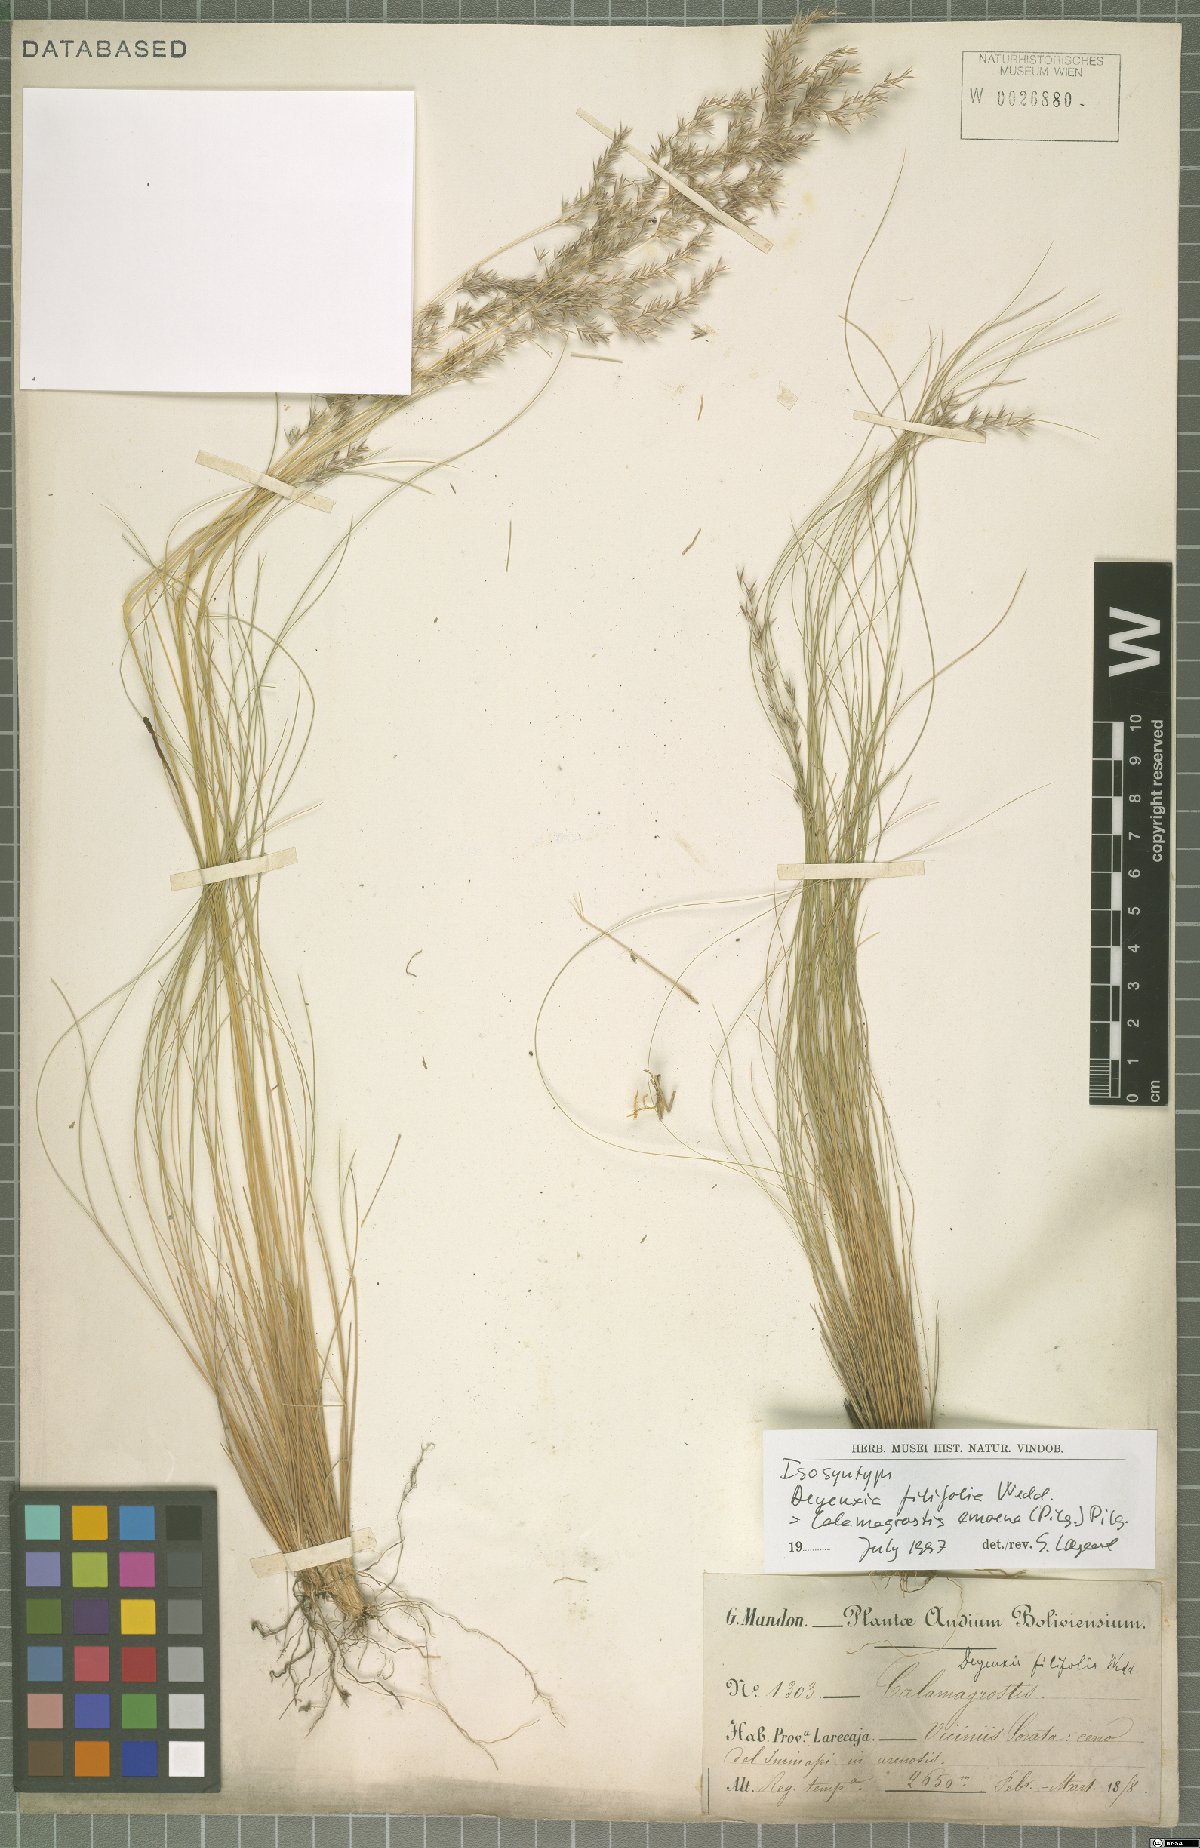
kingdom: Plantae
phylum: Tracheophyta
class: Liliopsida
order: Poales
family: Poaceae
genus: Cinnagrostis
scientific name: Cinnagrostis filifolia
